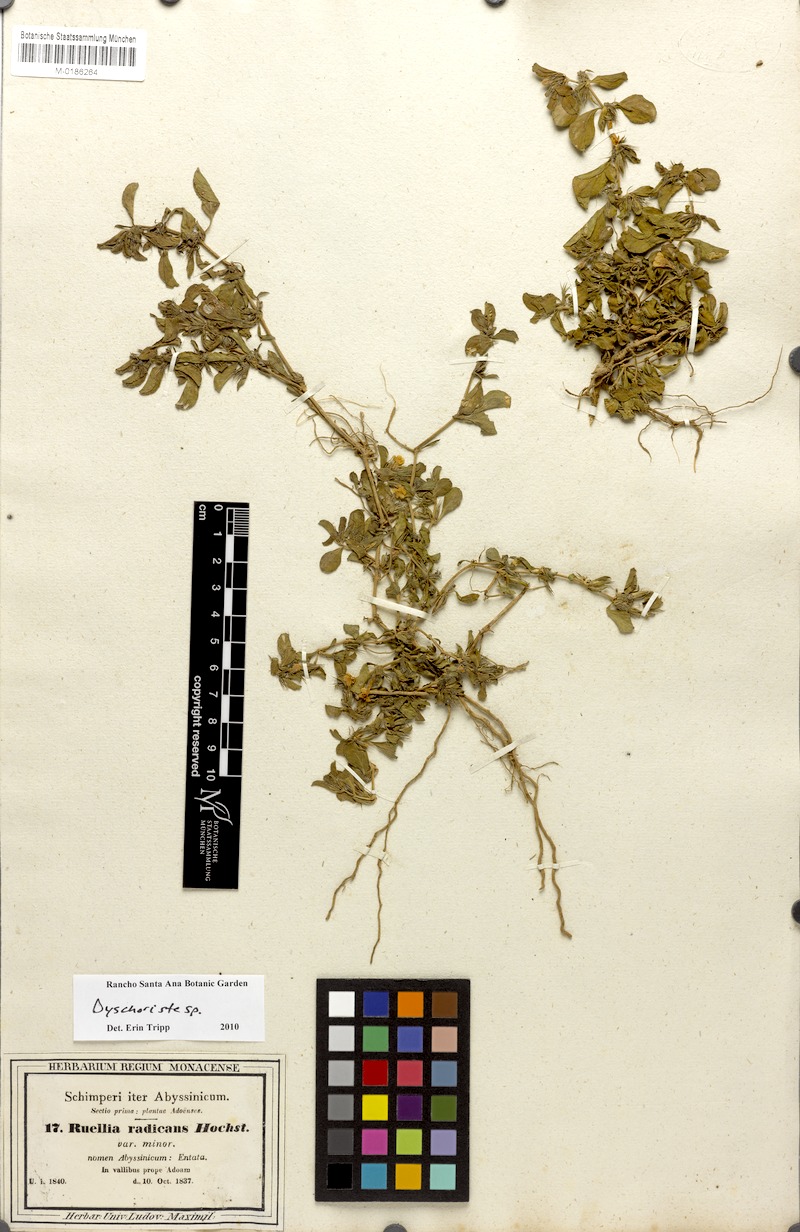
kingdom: Plantae
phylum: Tracheophyta
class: Magnoliopsida
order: Lamiales
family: Acanthaceae
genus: Dyschoriste
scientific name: Dyschoriste radicans
